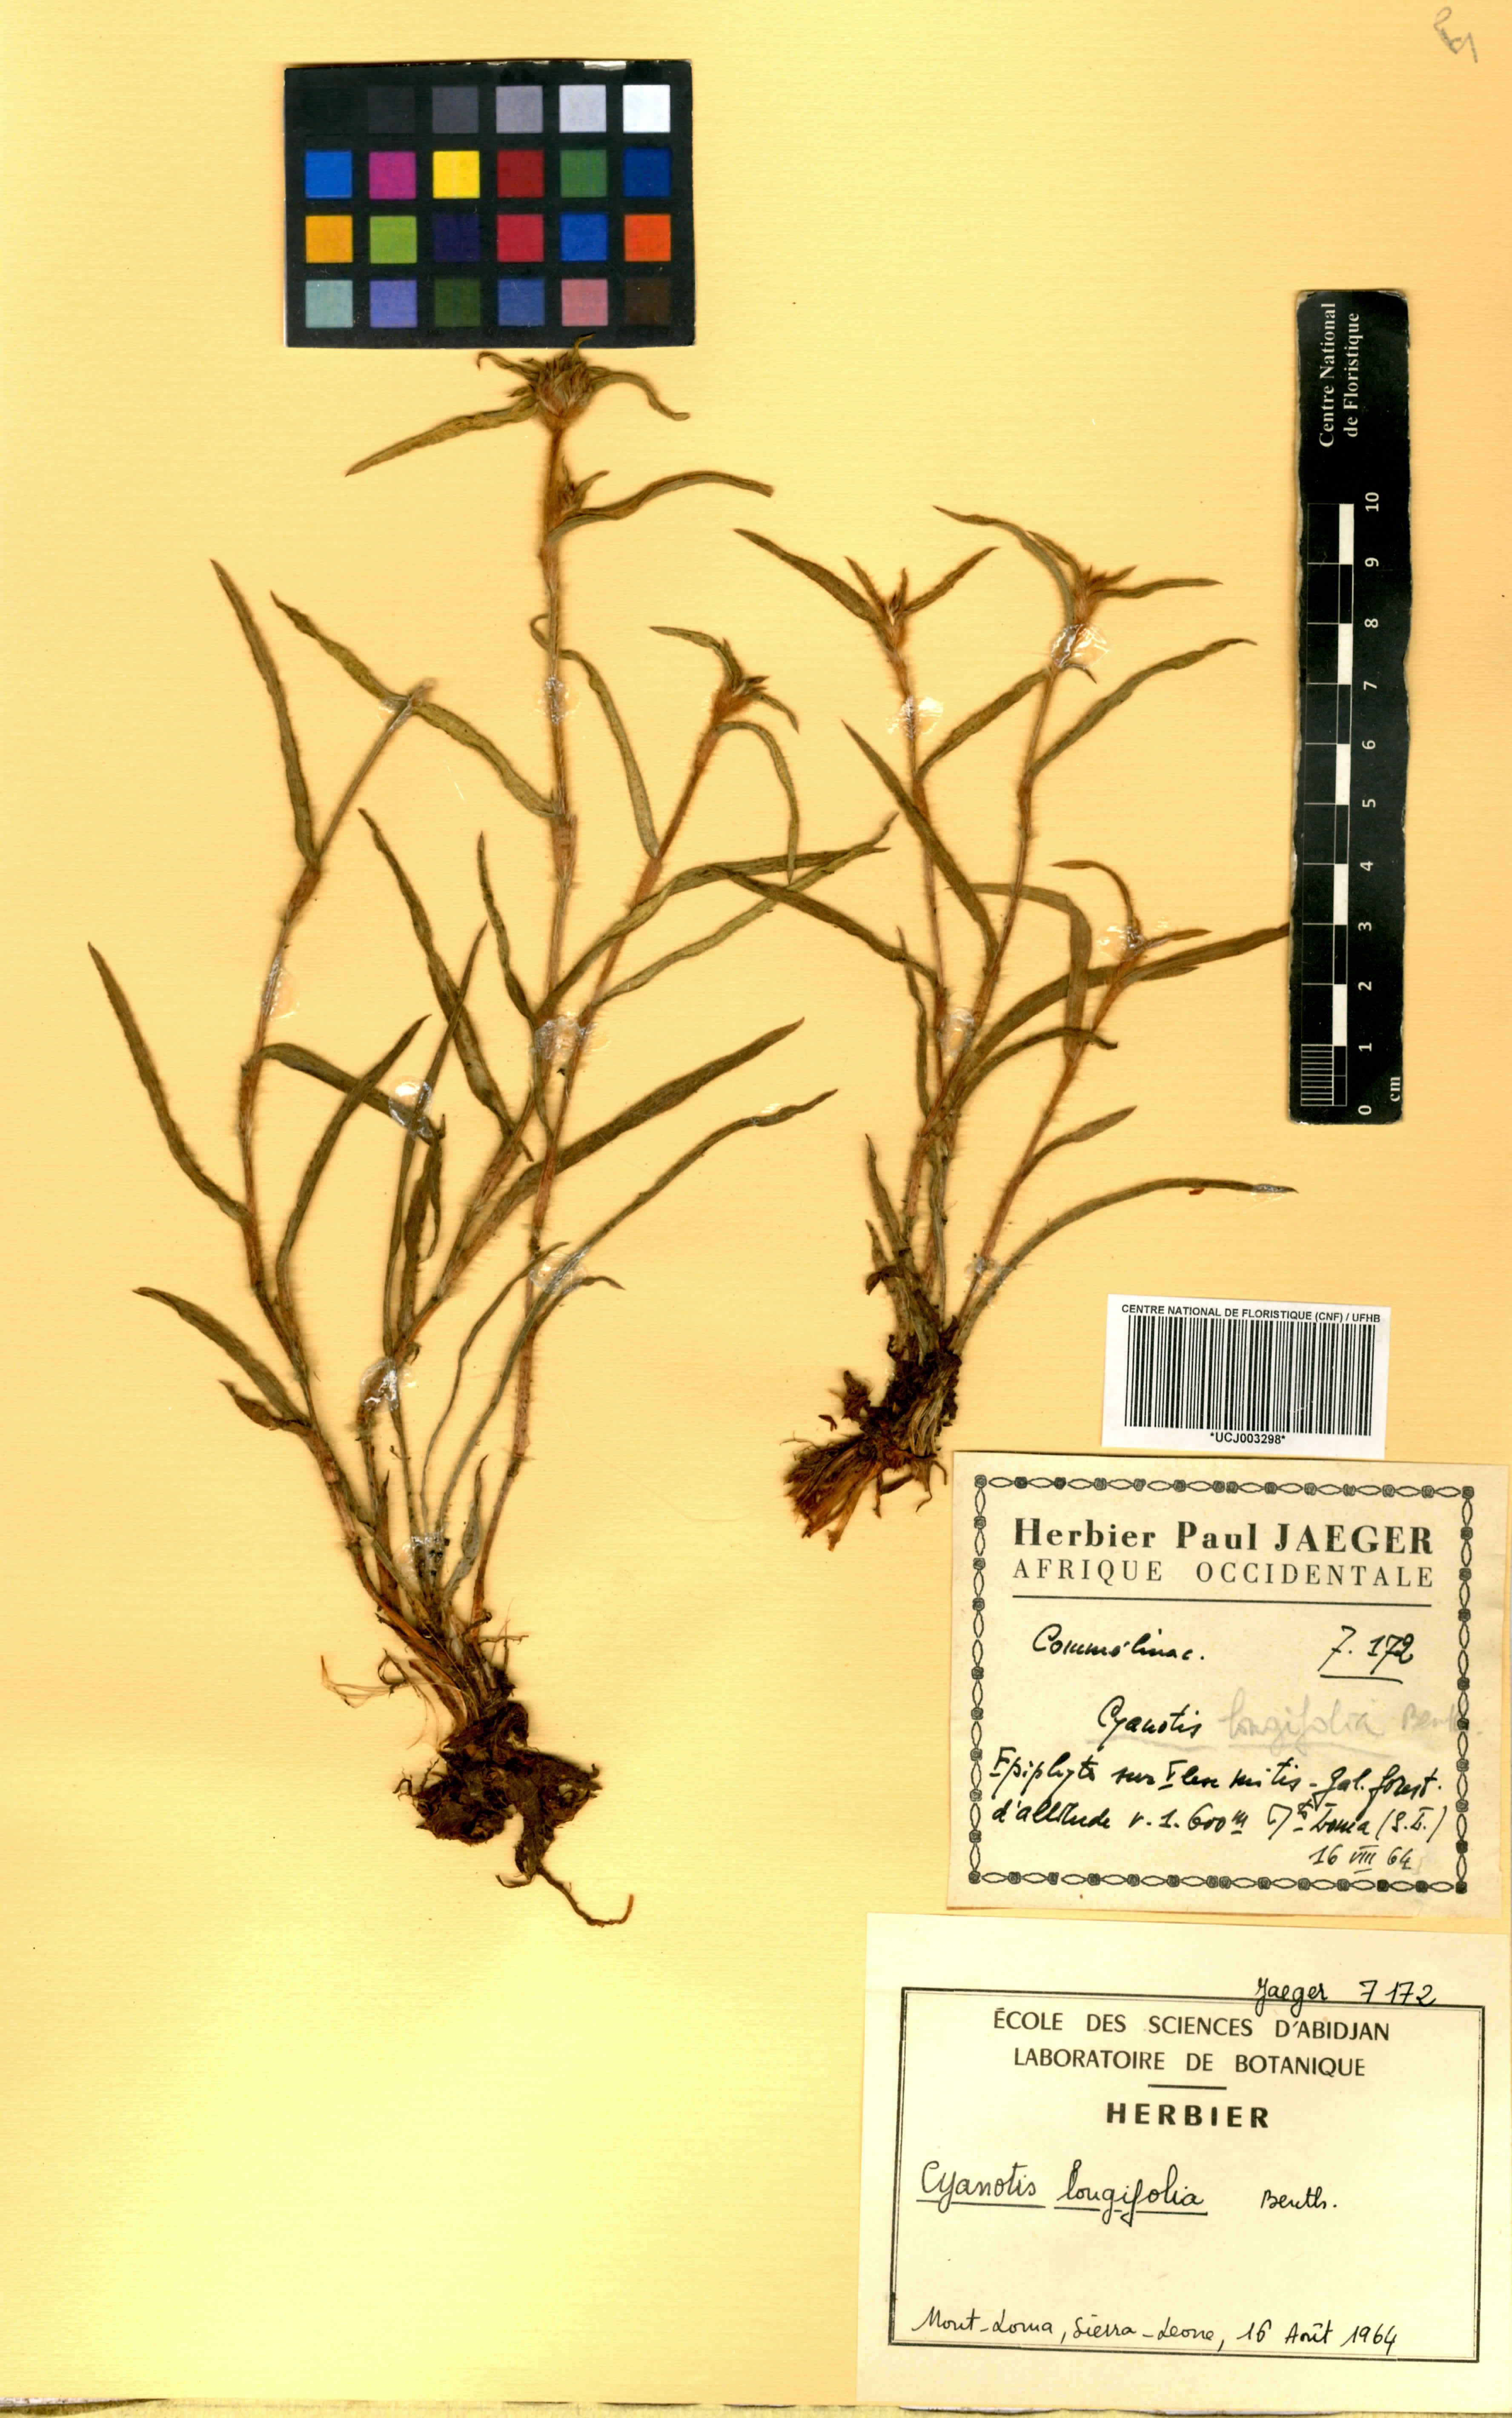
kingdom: Plantae
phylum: Tracheophyta
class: Liliopsida
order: Commelinales
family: Commelinaceae
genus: Cyanotis
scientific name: Cyanotis longifolia
